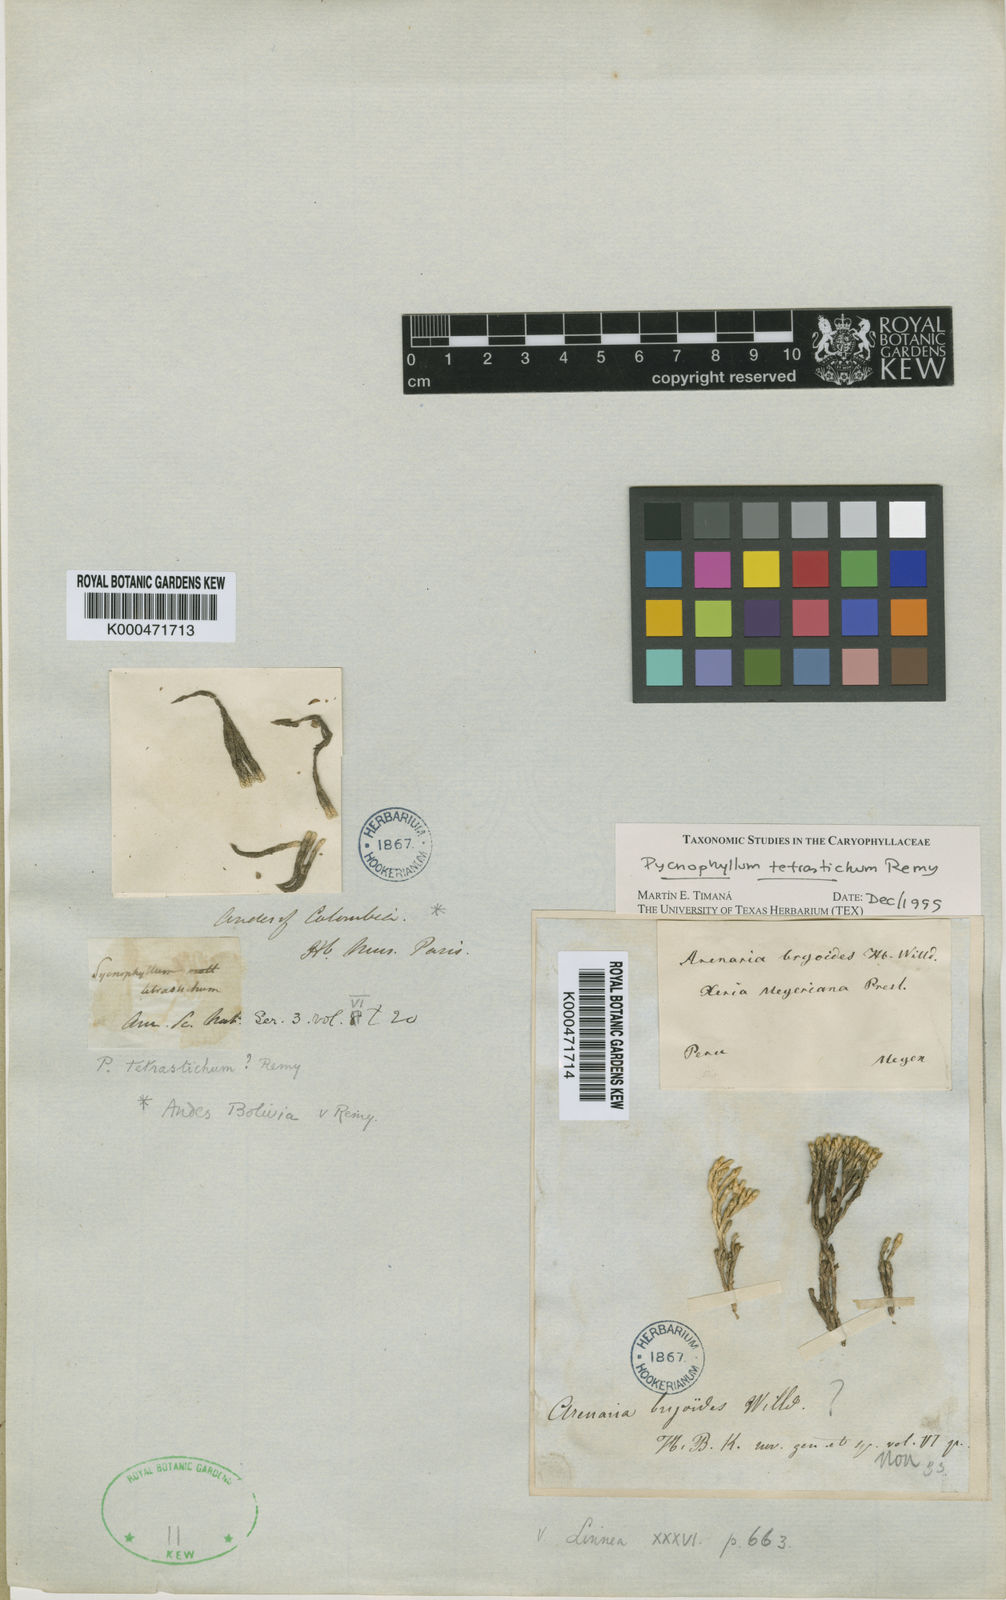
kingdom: Plantae
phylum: Tracheophyta
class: Magnoliopsida
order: Caryophyllales
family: Caryophyllaceae
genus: Pycnophyllum
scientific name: Pycnophyllum tetrastichum
